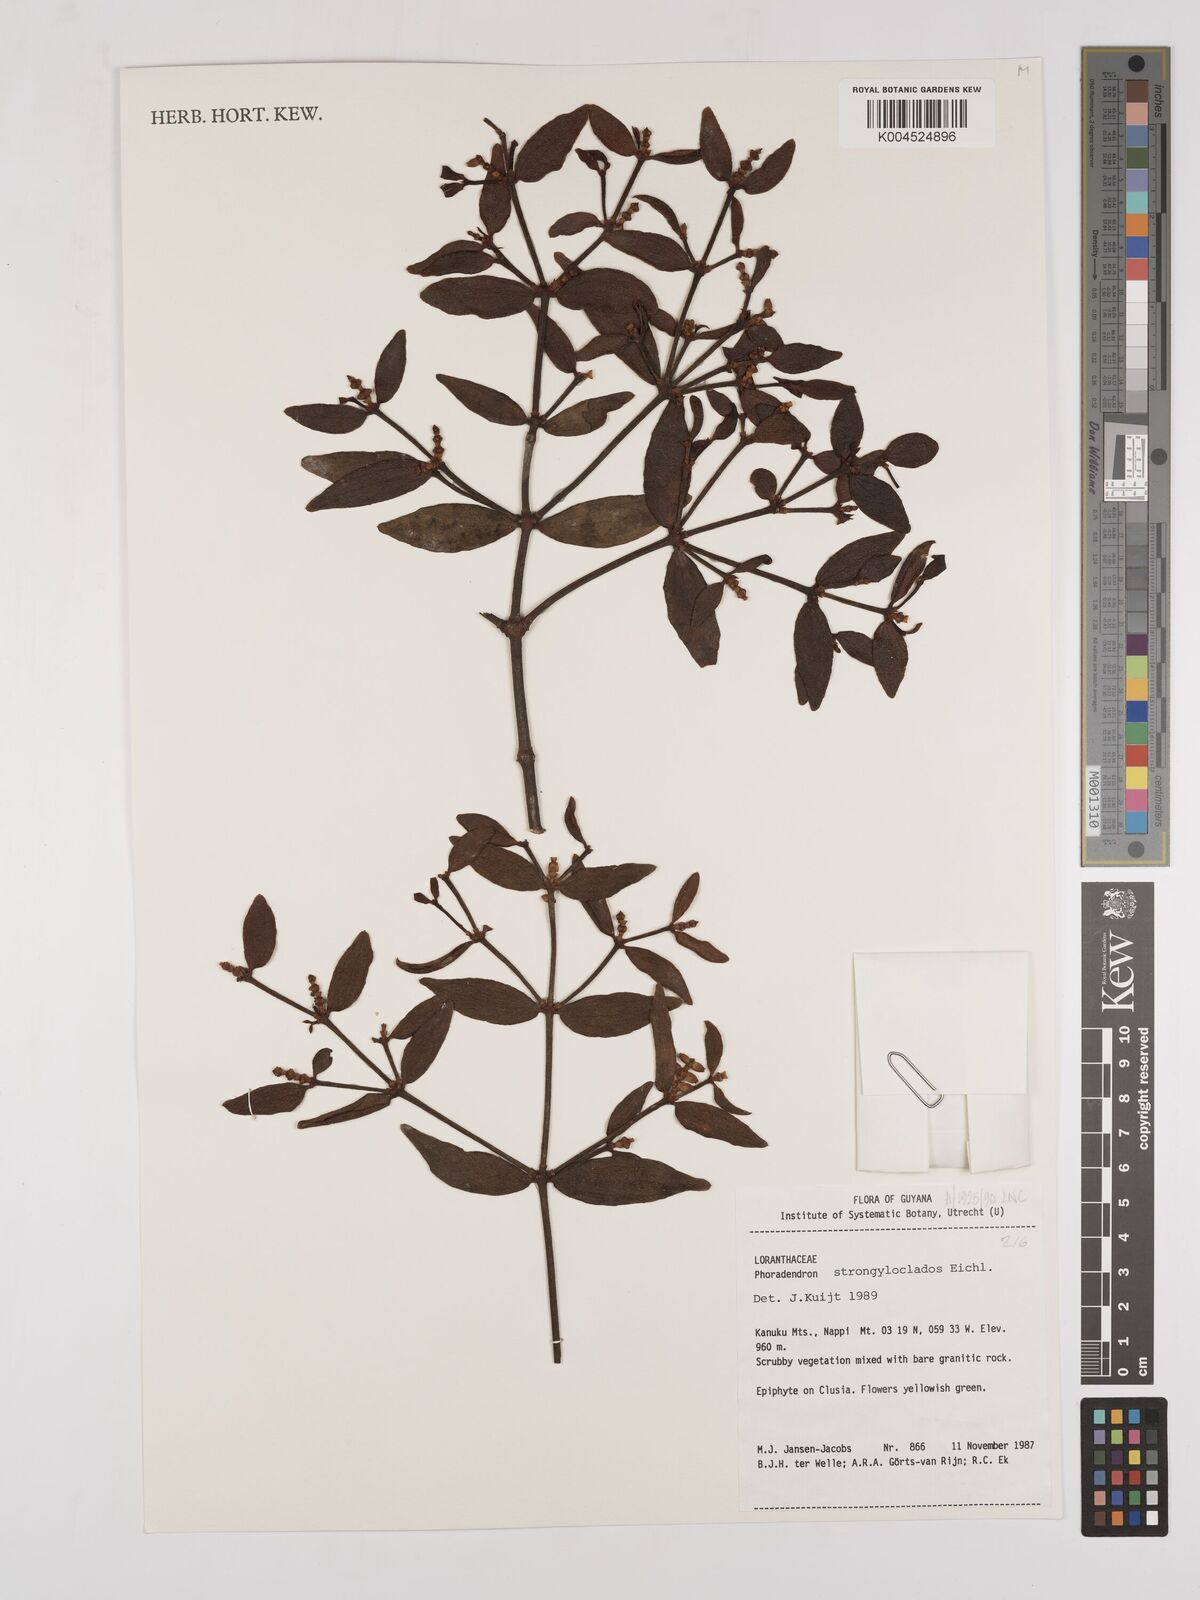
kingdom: Plantae
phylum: Tracheophyta
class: Magnoliopsida
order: Santalales
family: Viscaceae
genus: Phoradendron
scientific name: Phoradendron strongyloclados
